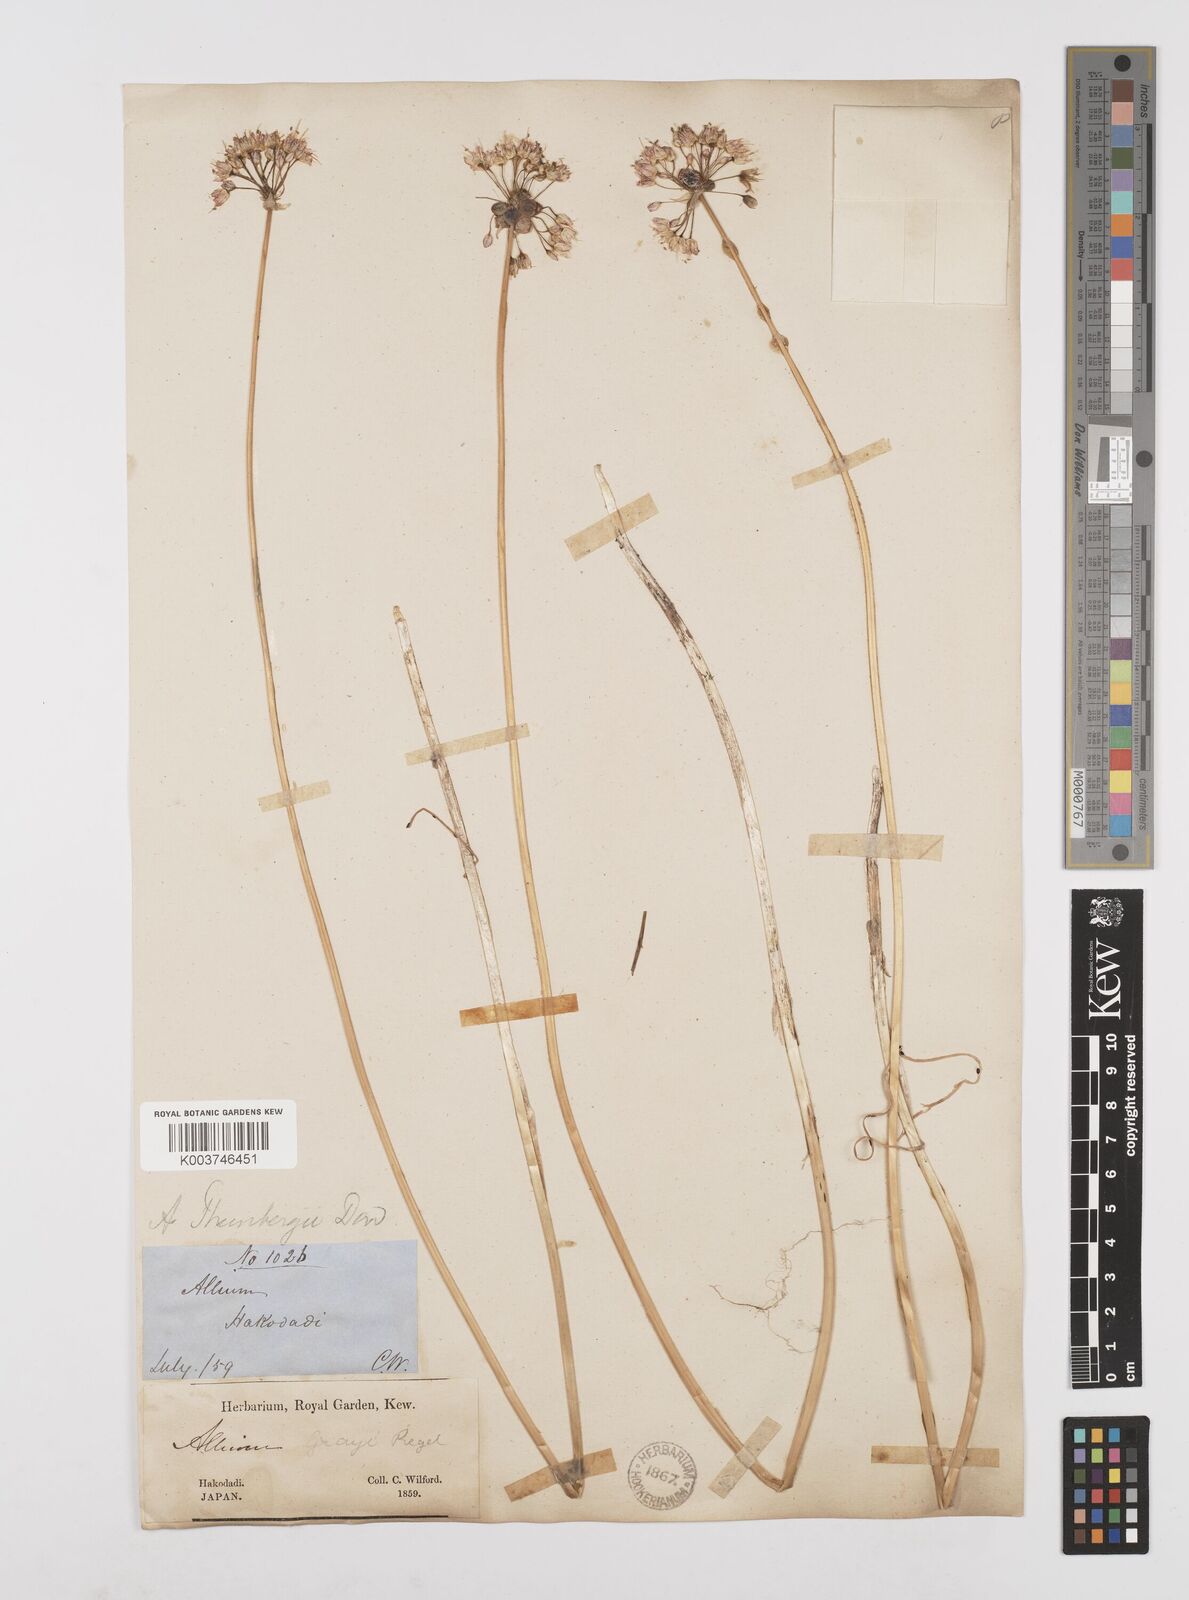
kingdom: Plantae
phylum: Tracheophyta
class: Liliopsida
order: Asparagales
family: Amaryllidaceae
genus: Allium
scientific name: Allium macrostemon
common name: Chinese garlic
